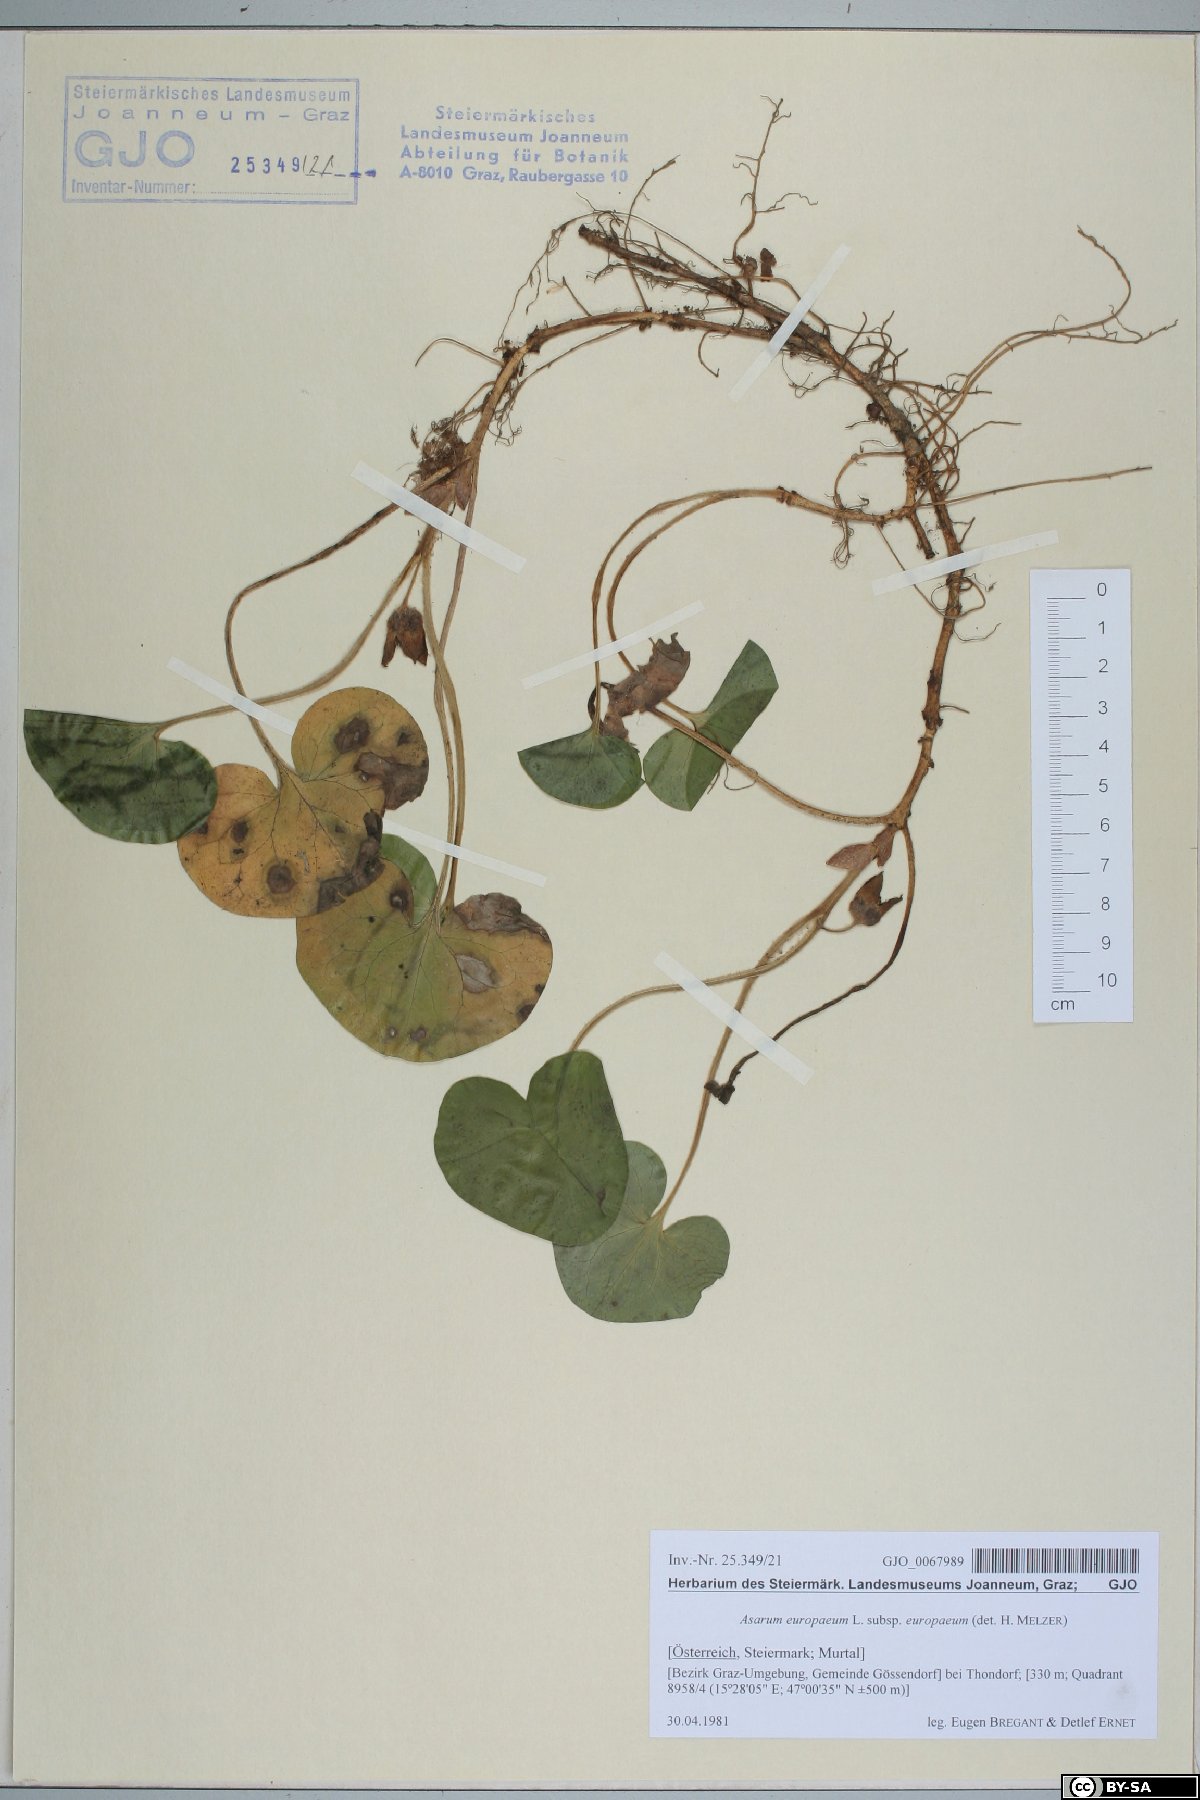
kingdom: Plantae
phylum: Tracheophyta
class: Magnoliopsida
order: Piperales
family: Aristolochiaceae
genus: Asarum
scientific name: Asarum europaeum
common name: Asarabacca
